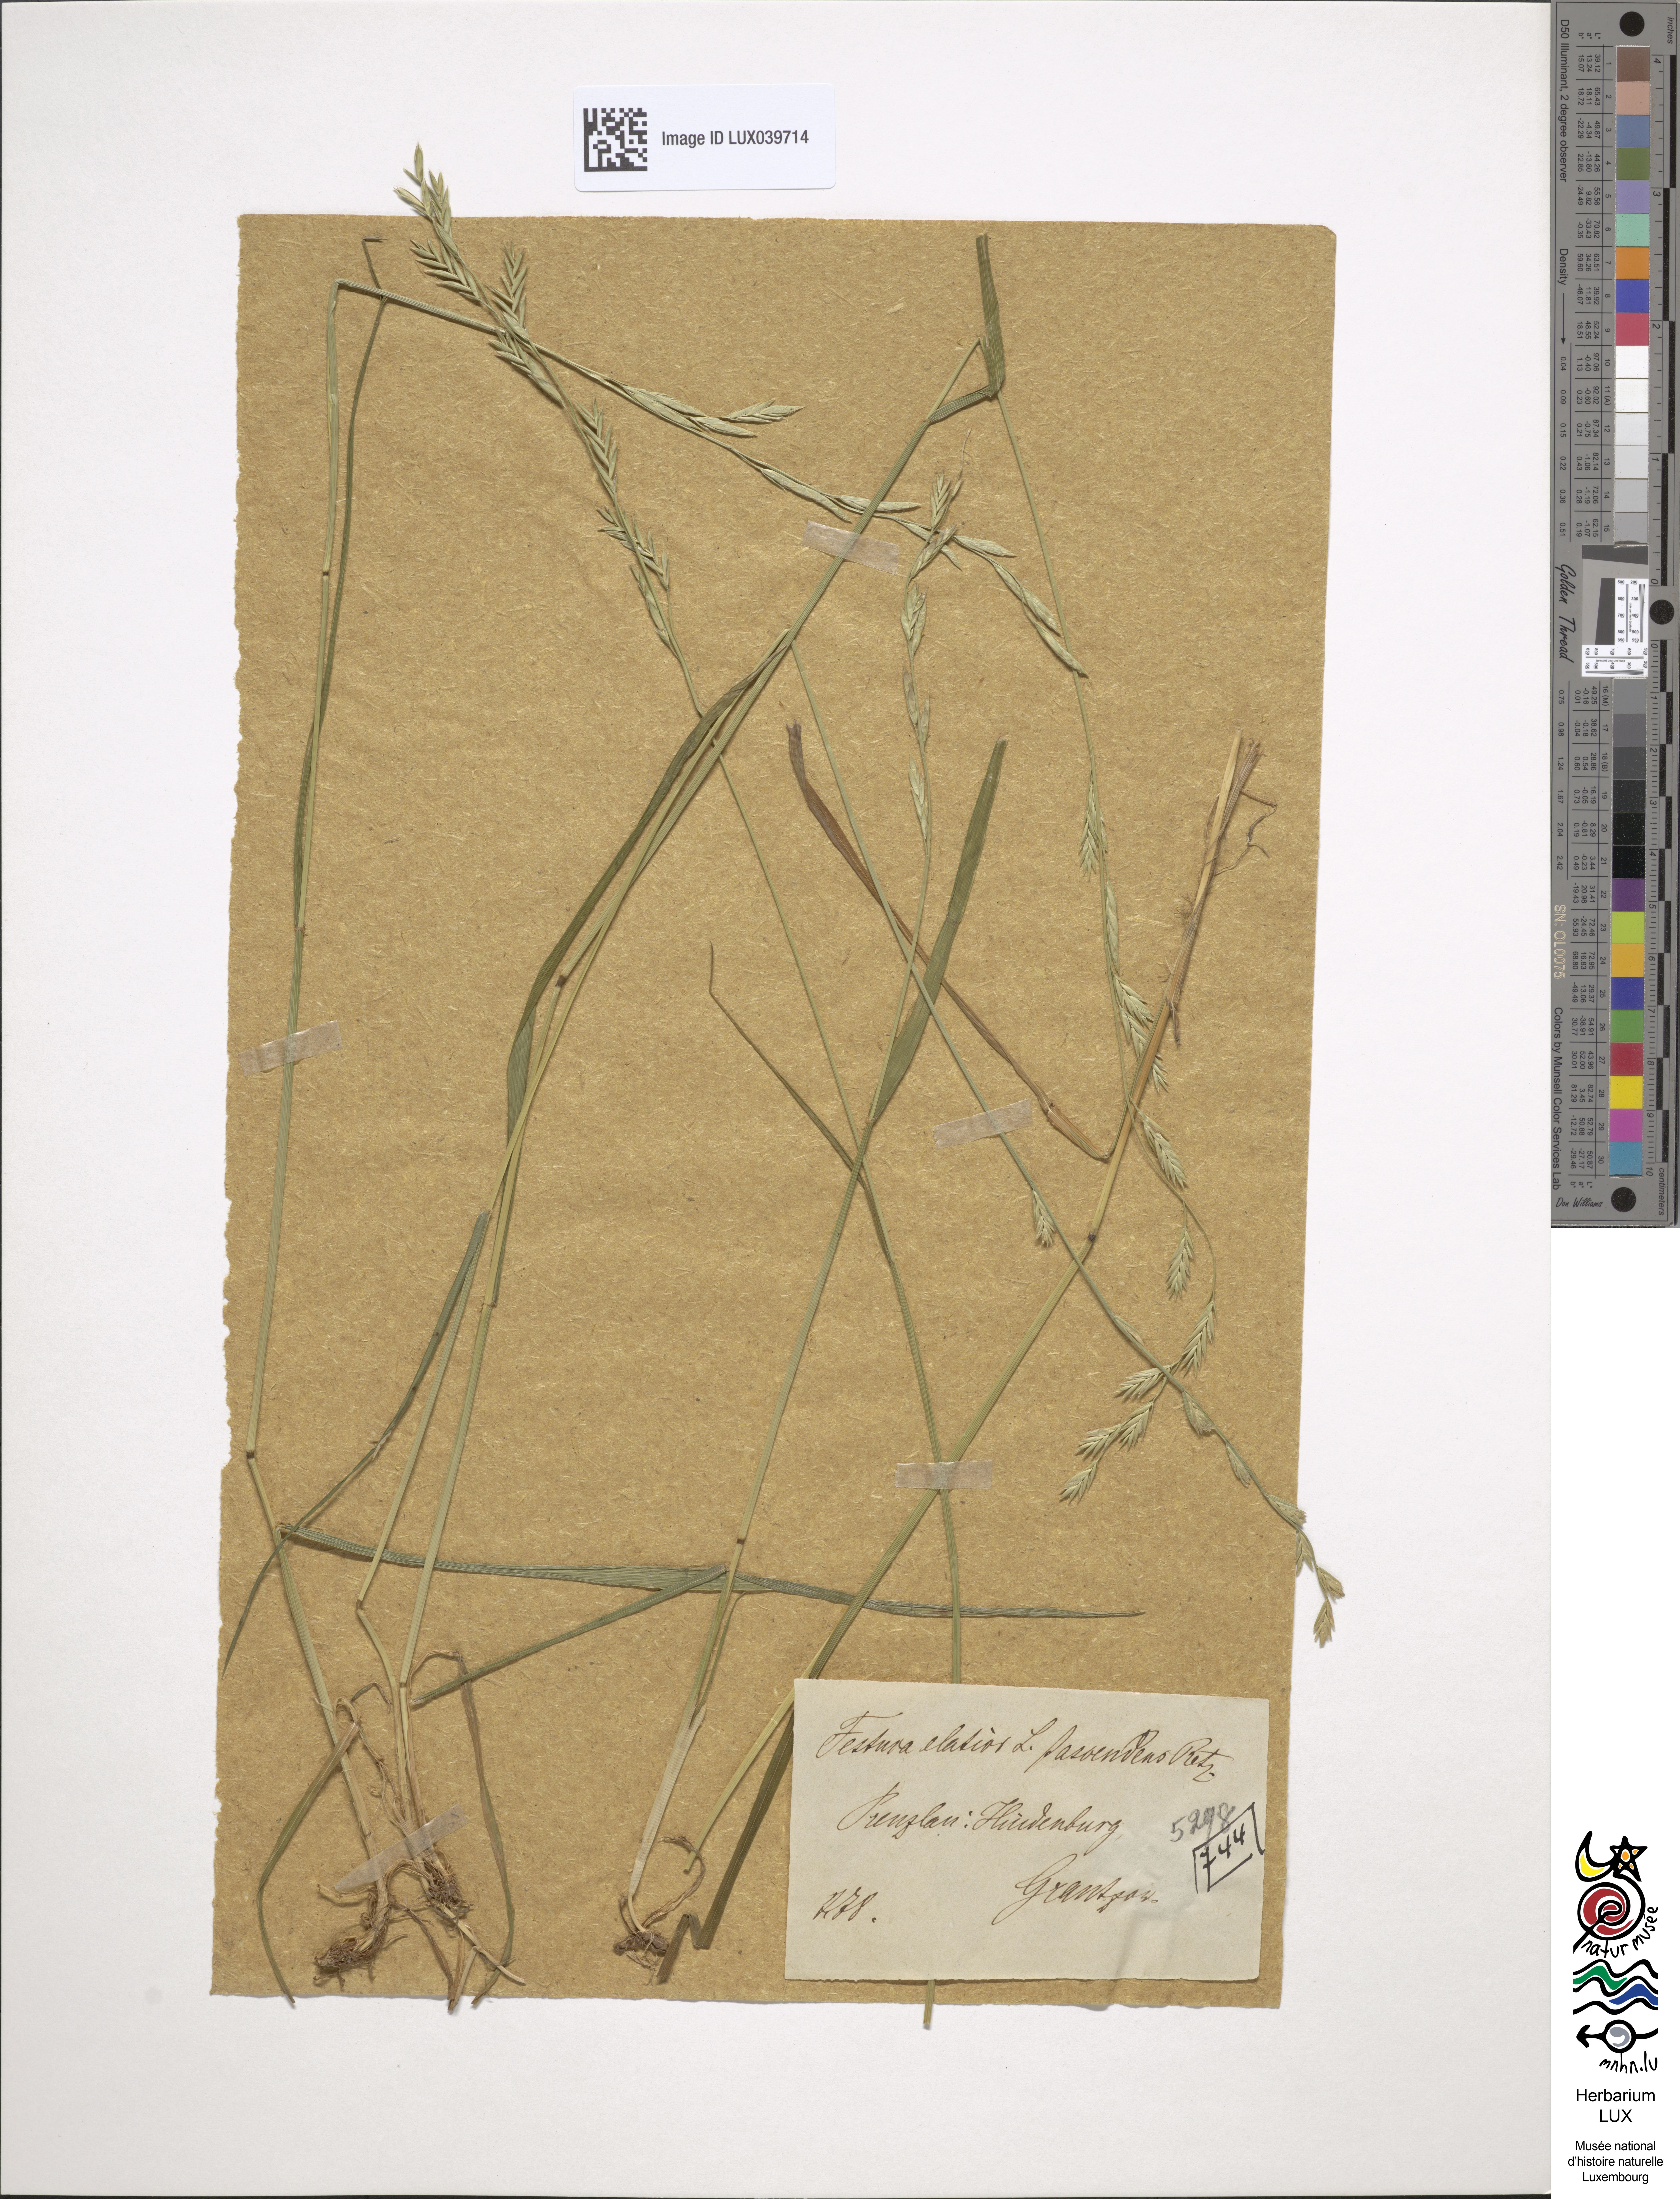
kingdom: Plantae
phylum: Tracheophyta
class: Liliopsida
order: Poales
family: Poaceae
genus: Lolium
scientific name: Lolium pratense
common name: Dover grass
